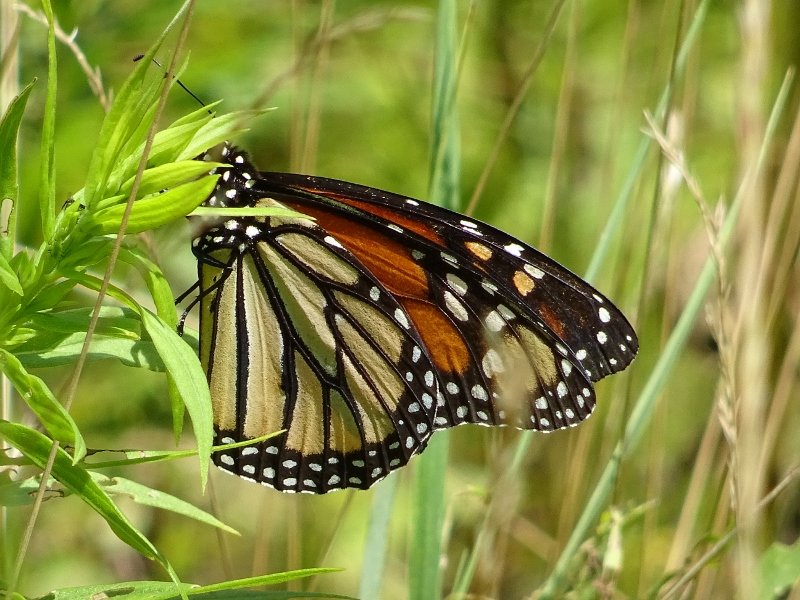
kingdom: Animalia
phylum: Arthropoda
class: Insecta
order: Lepidoptera
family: Nymphalidae
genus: Danaus
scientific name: Danaus plexippus
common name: Monarch
